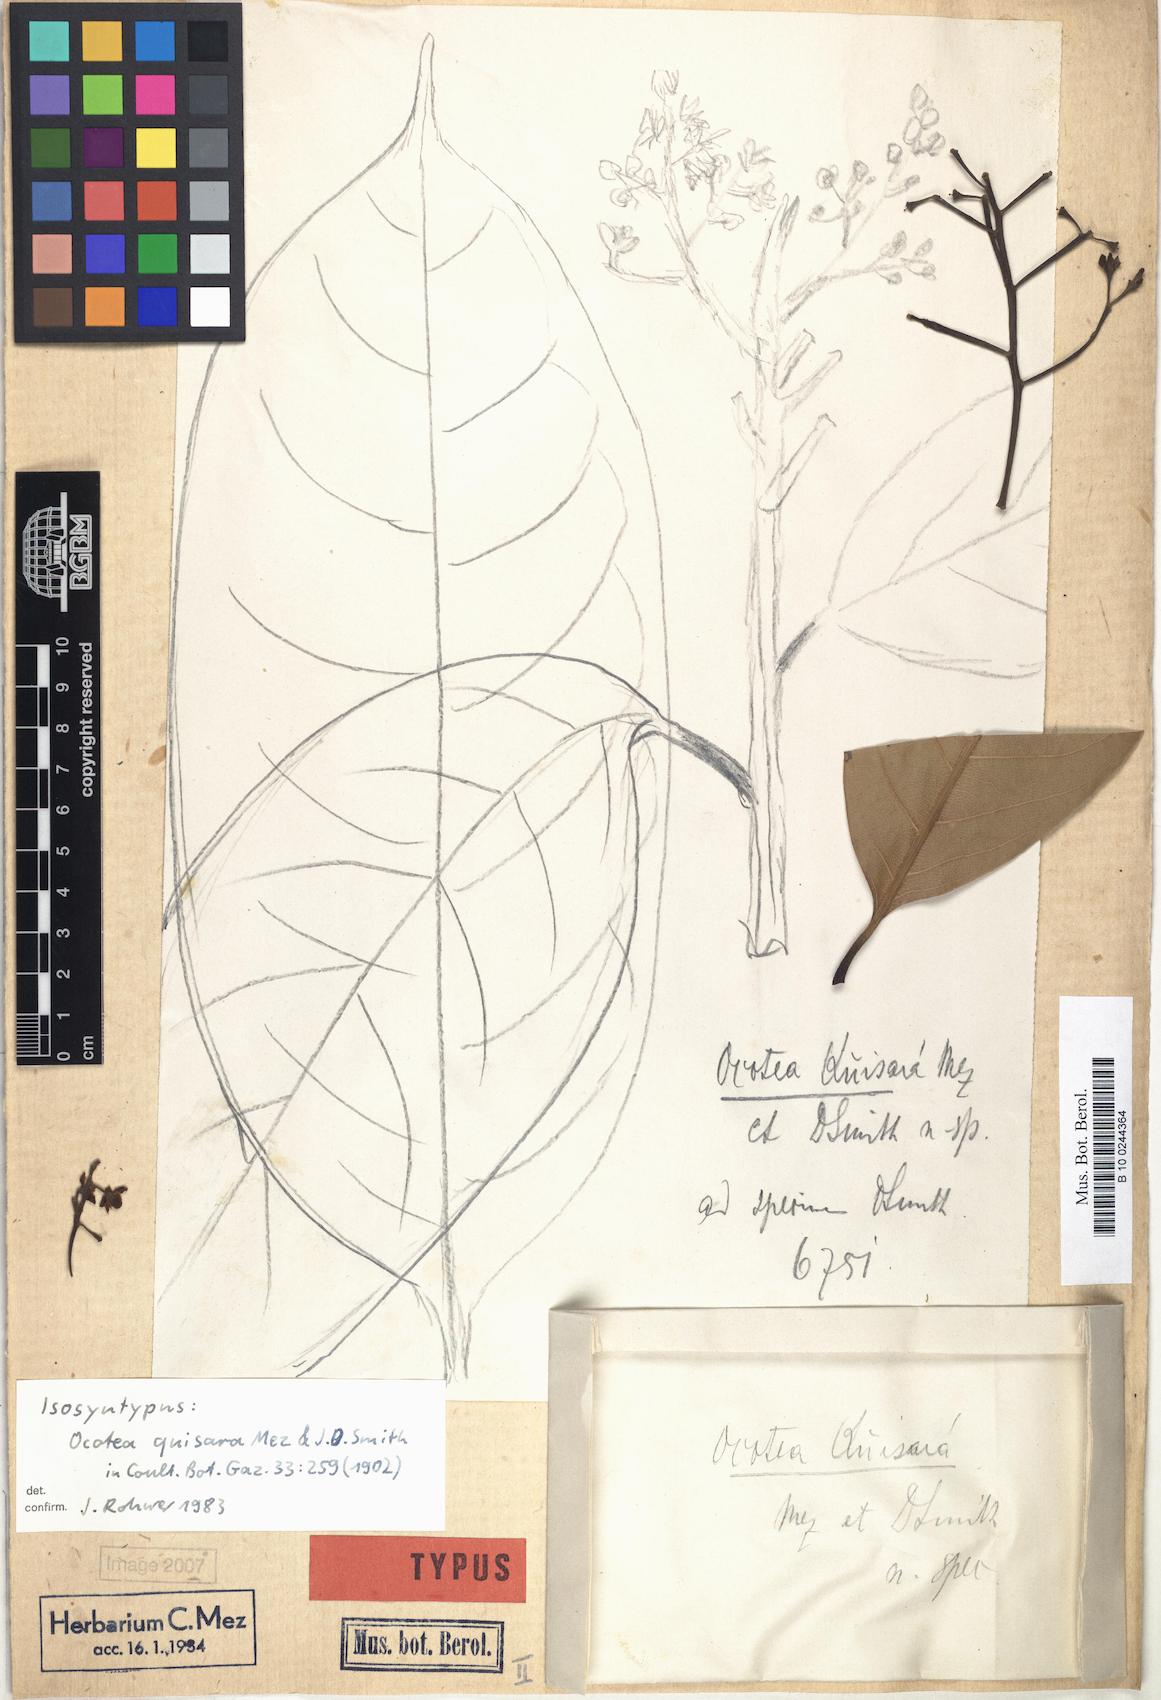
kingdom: Plantae
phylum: Tracheophyta
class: Magnoliopsida
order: Laurales
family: Lauraceae
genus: Mespilodaphne
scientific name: Mespilodaphne macrophylla
